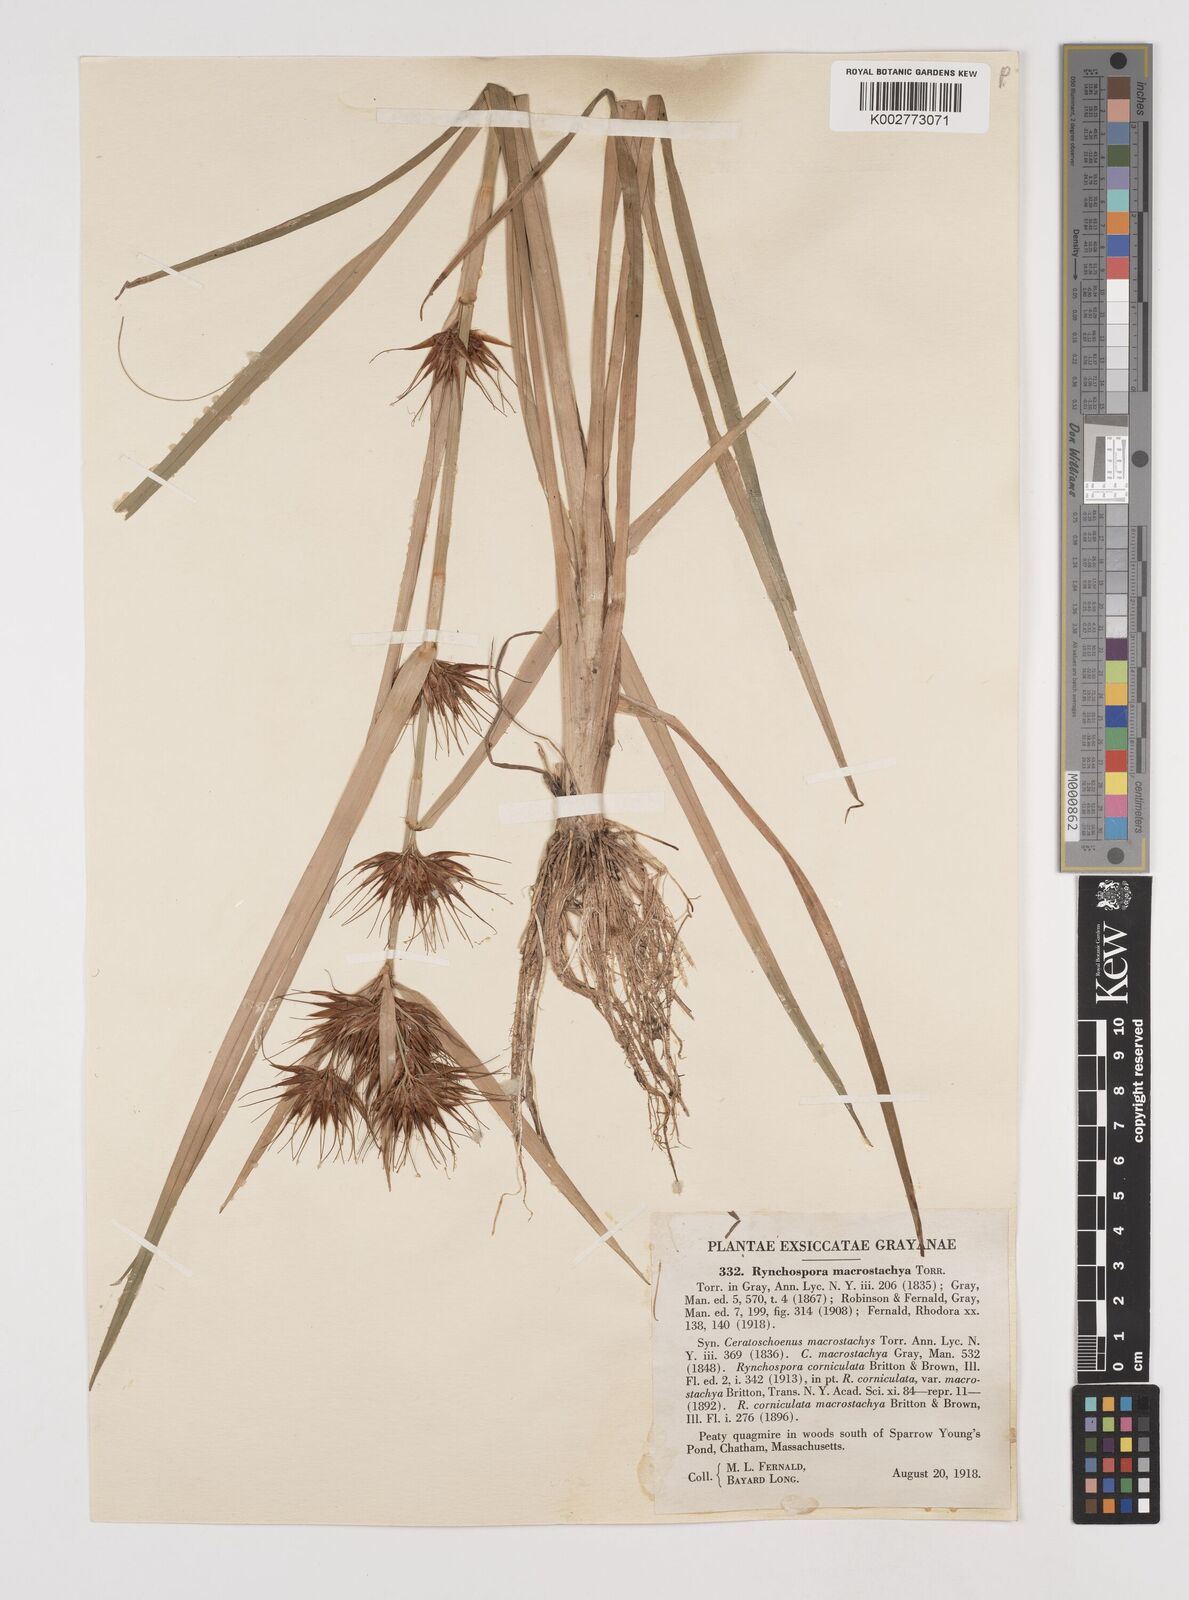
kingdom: Plantae
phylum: Tracheophyta
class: Liliopsida
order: Poales
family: Cyperaceae
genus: Rhynchospora
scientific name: Rhynchospora macrostachya
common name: Tall beakrush
